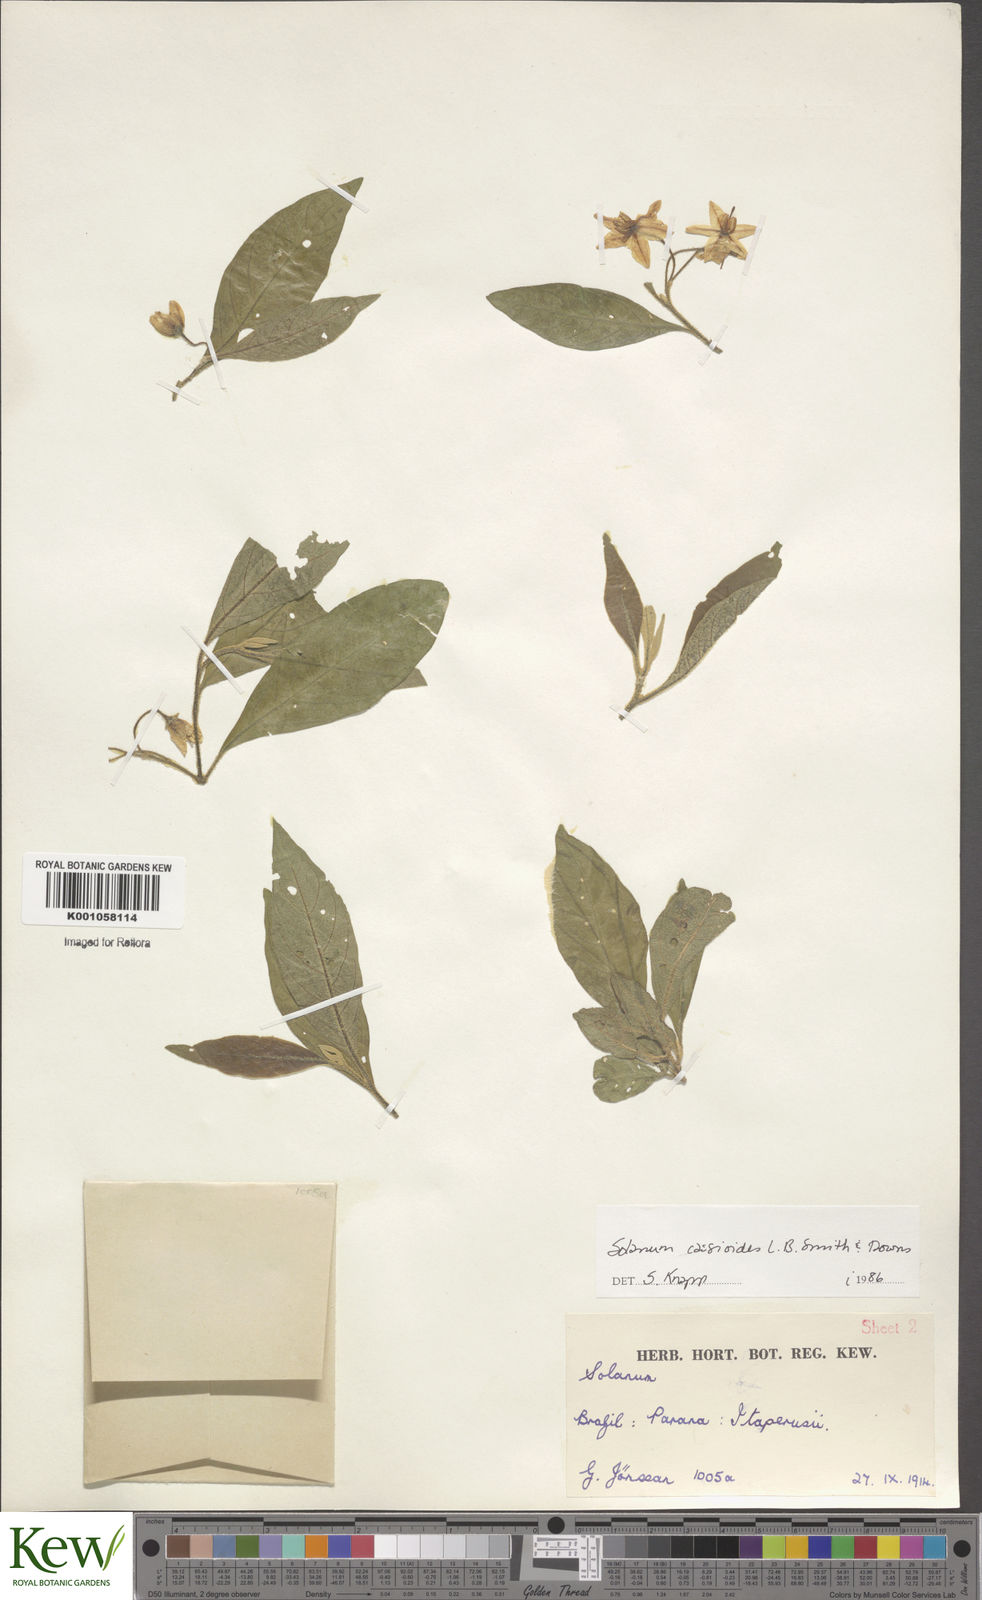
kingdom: Plantae
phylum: Tracheophyta
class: Magnoliopsida
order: Solanales
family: Solanaceae
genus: Solanum
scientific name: Solanum cassioides
